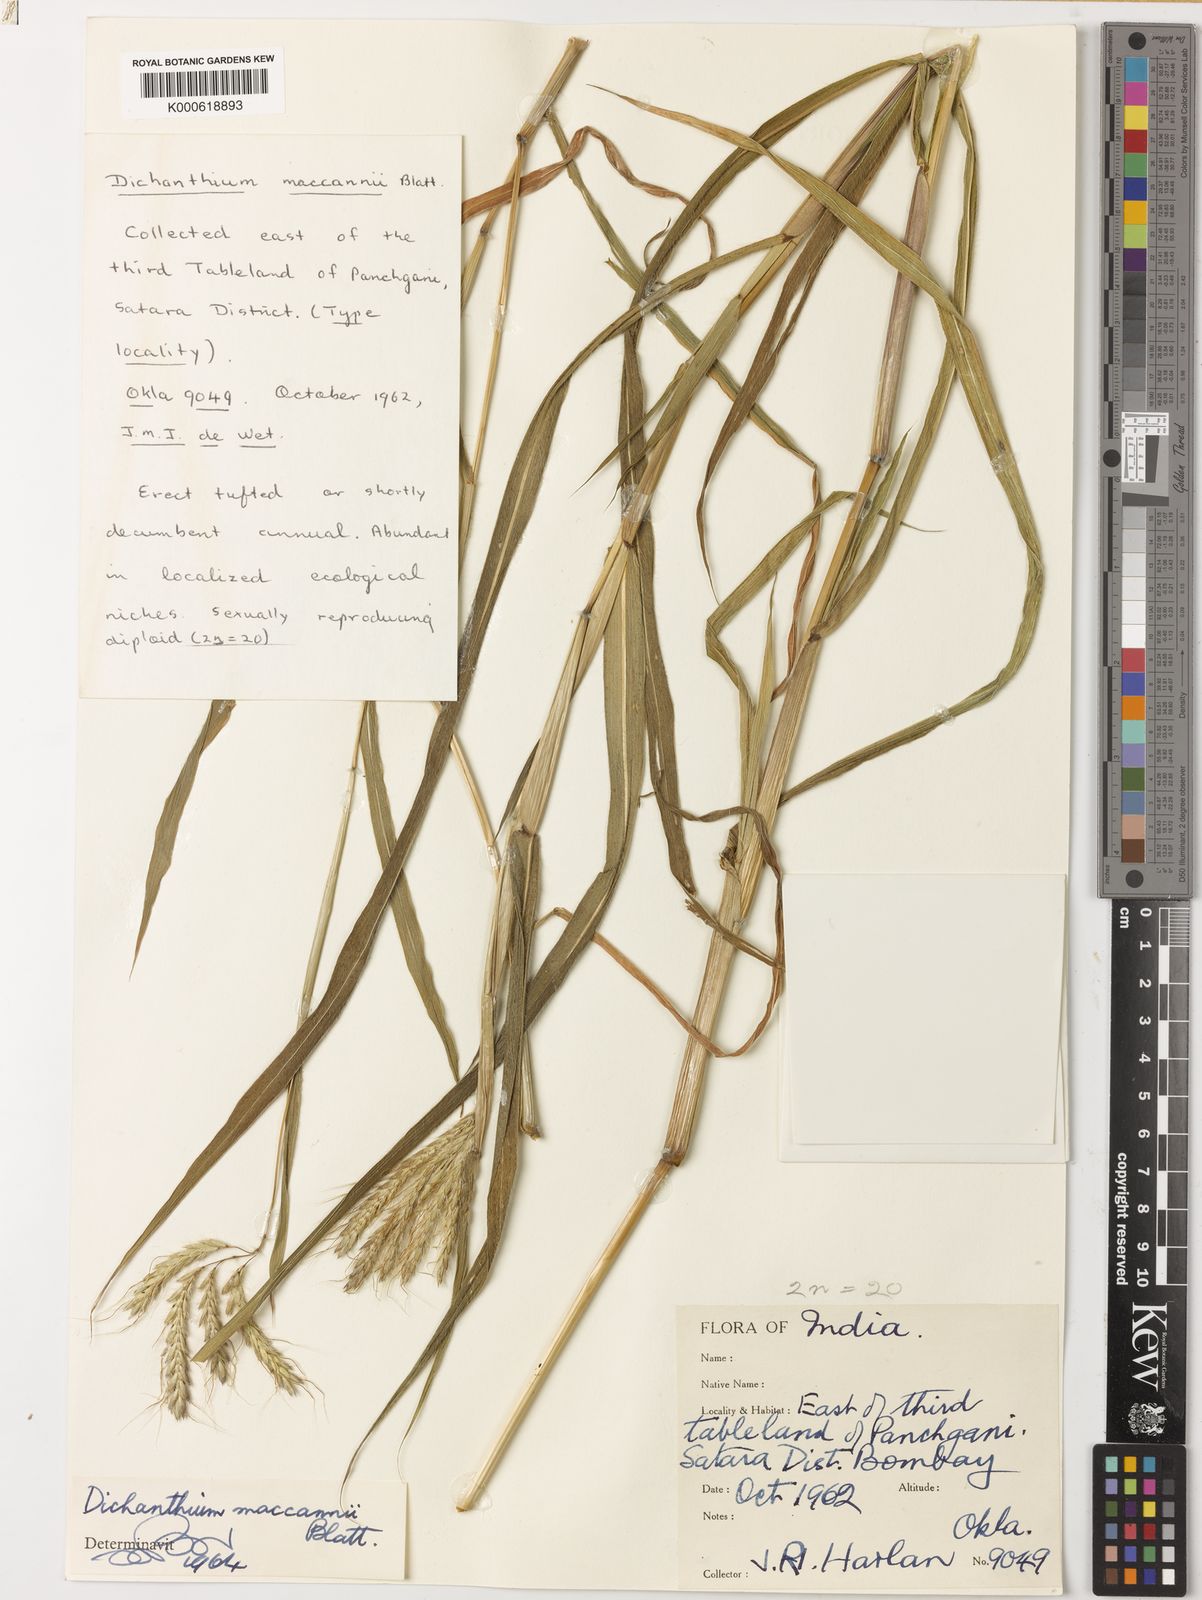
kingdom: Plantae
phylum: Tracheophyta
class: Liliopsida
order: Poales
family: Poaceae
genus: Dichanthium
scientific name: Dichanthium mccannii
